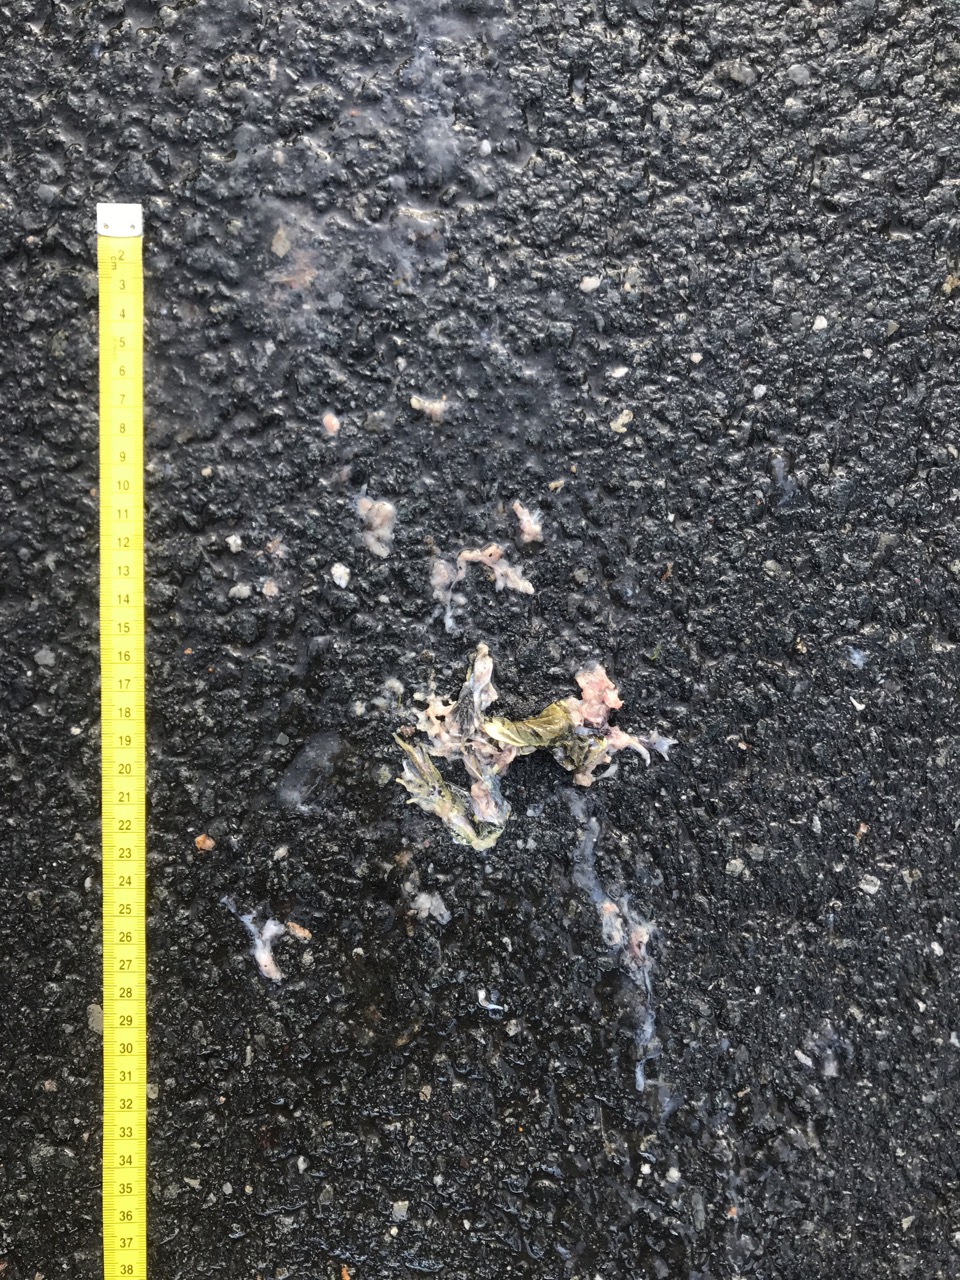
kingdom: Animalia
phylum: Chordata
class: Amphibia
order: Anura
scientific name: Anura
